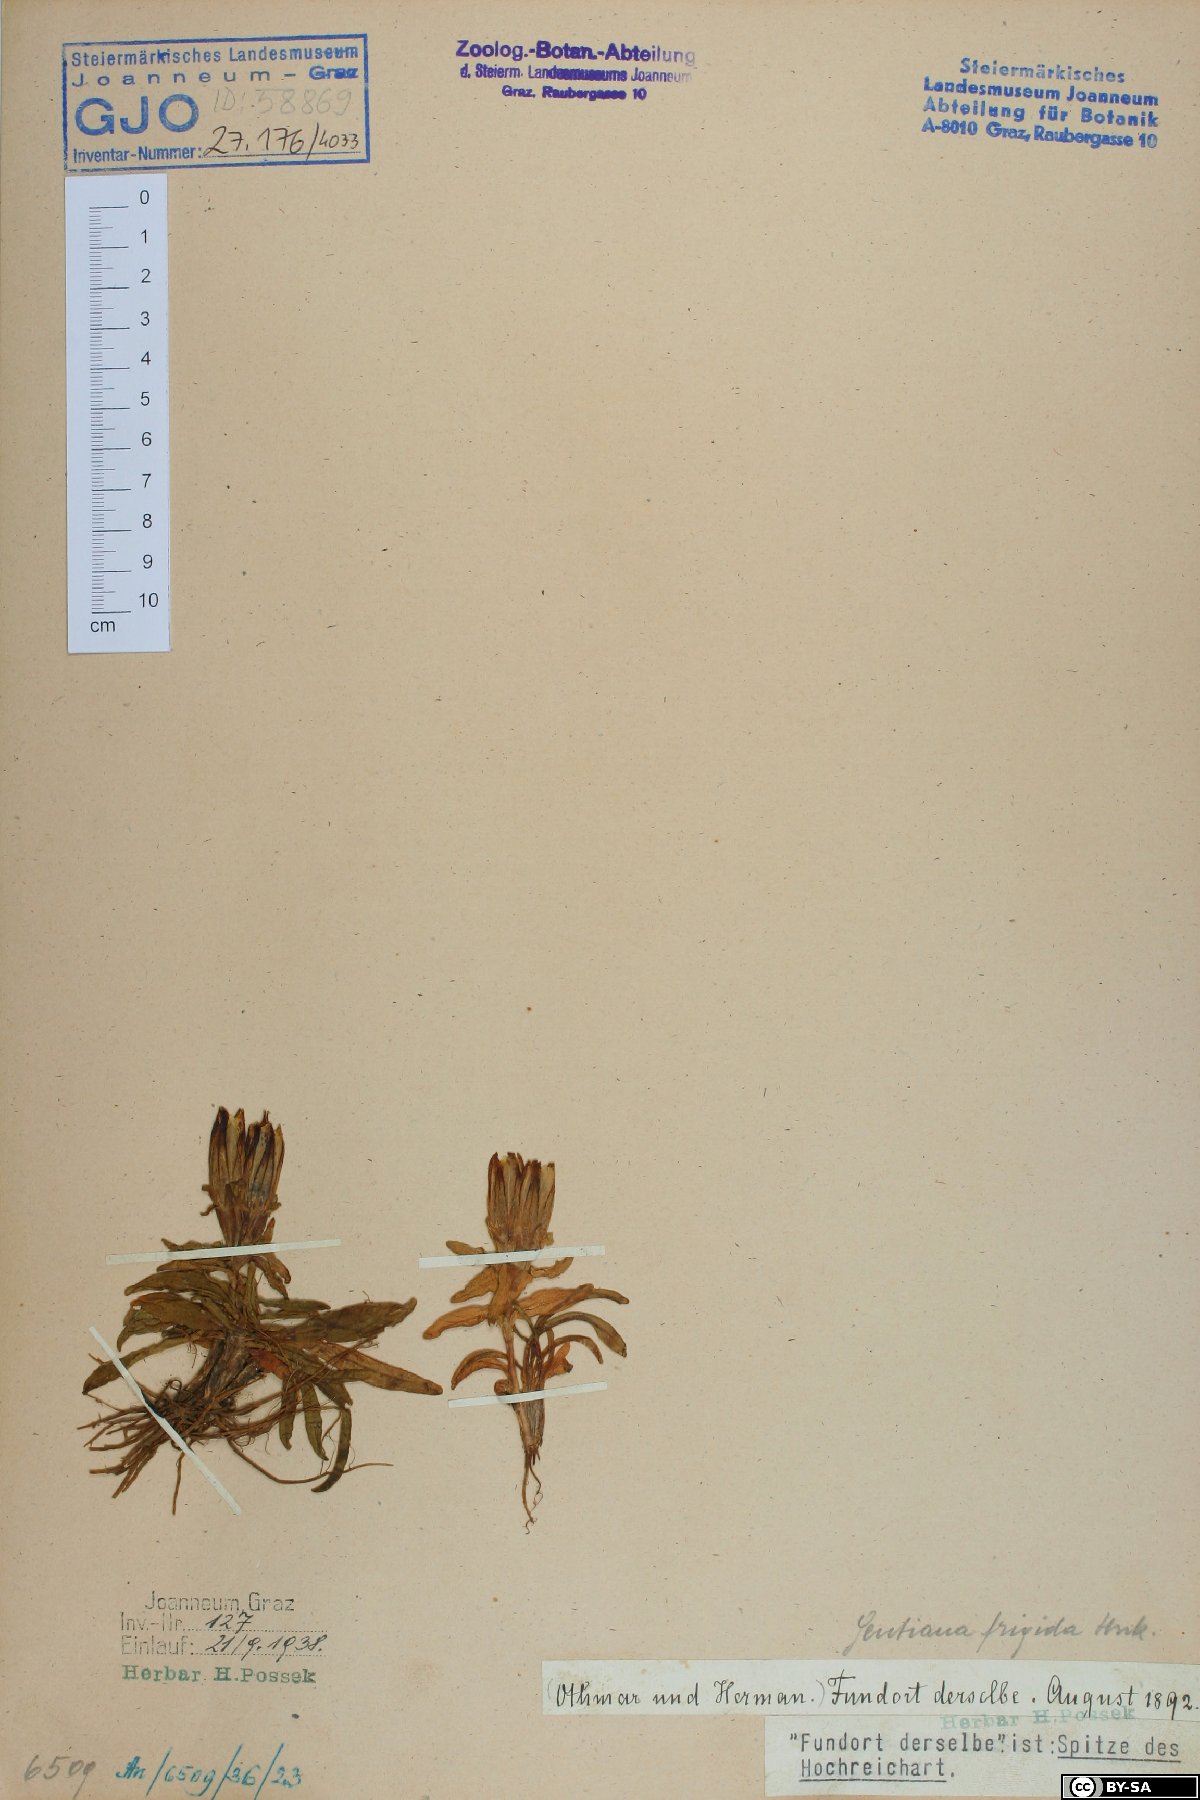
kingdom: Plantae
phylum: Tracheophyta
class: Magnoliopsida
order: Gentianales
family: Gentianaceae
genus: Gentiana
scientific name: Gentiana frigida
